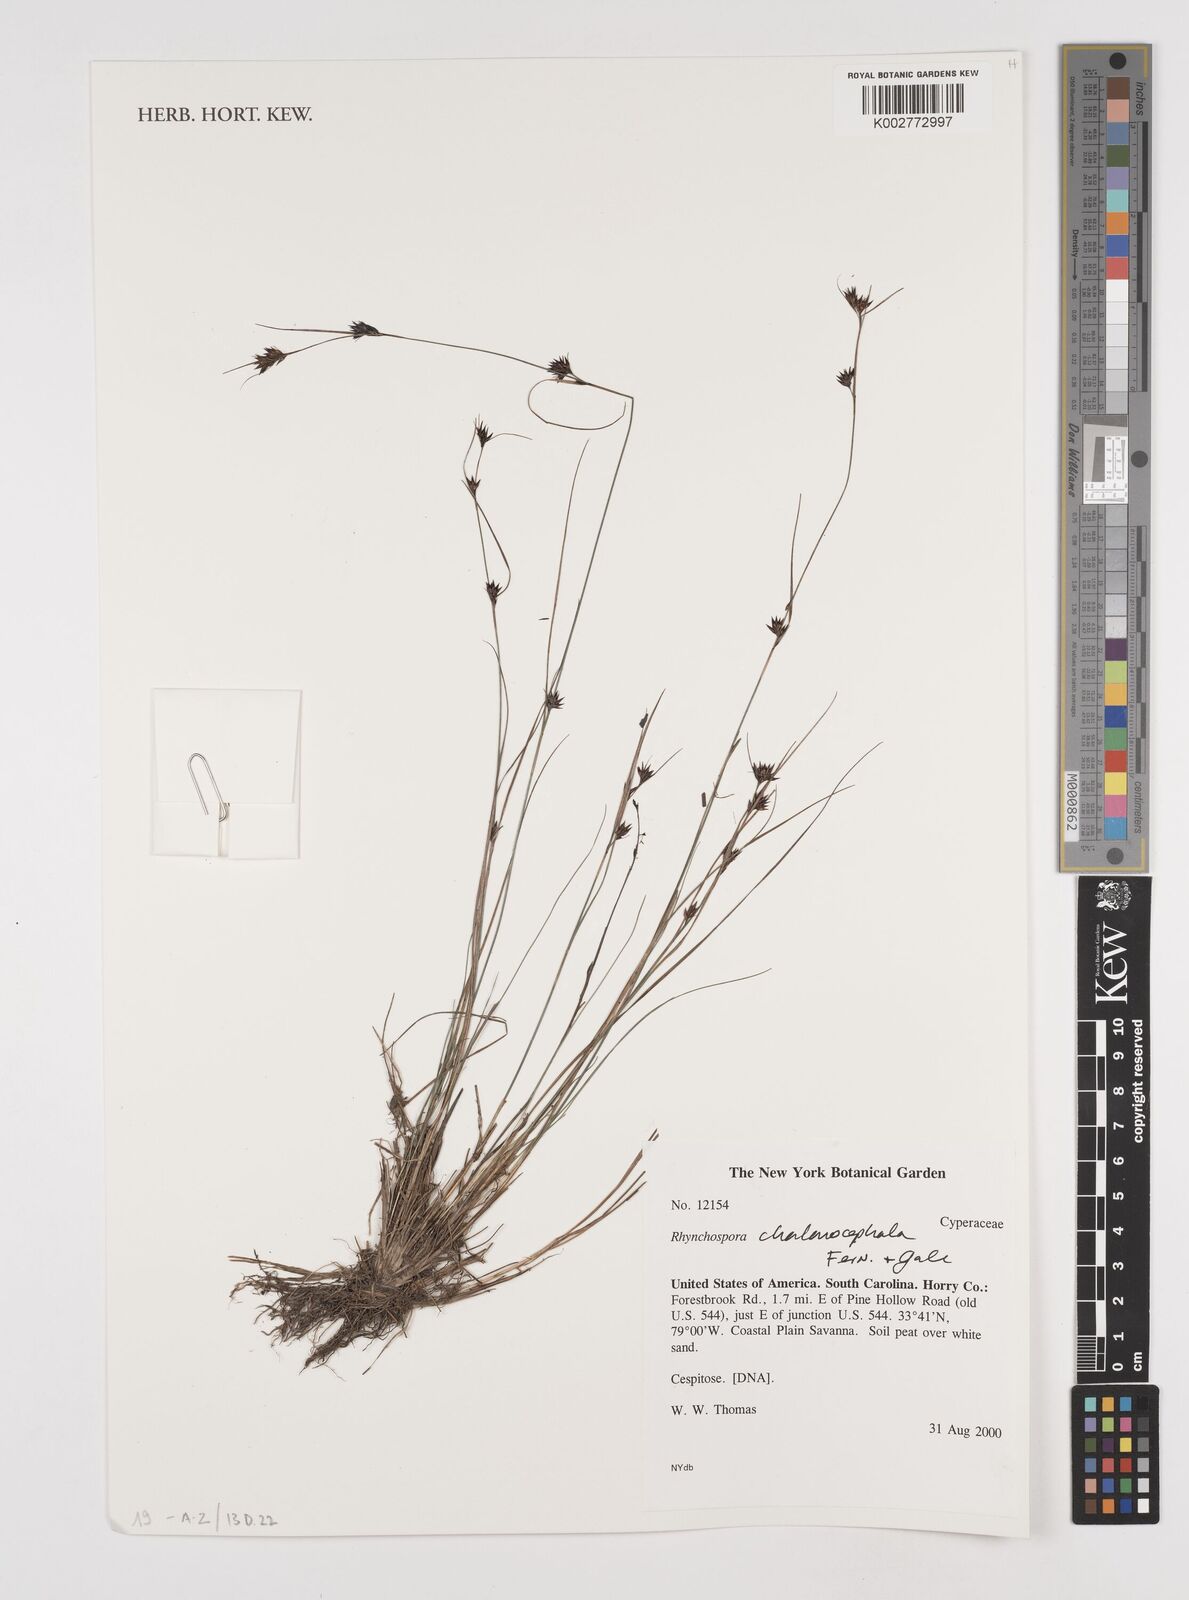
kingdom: Plantae
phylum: Tracheophyta
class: Liliopsida
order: Poales
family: Cyperaceae
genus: Rhynchospora
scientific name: Rhynchospora chalarocephala
